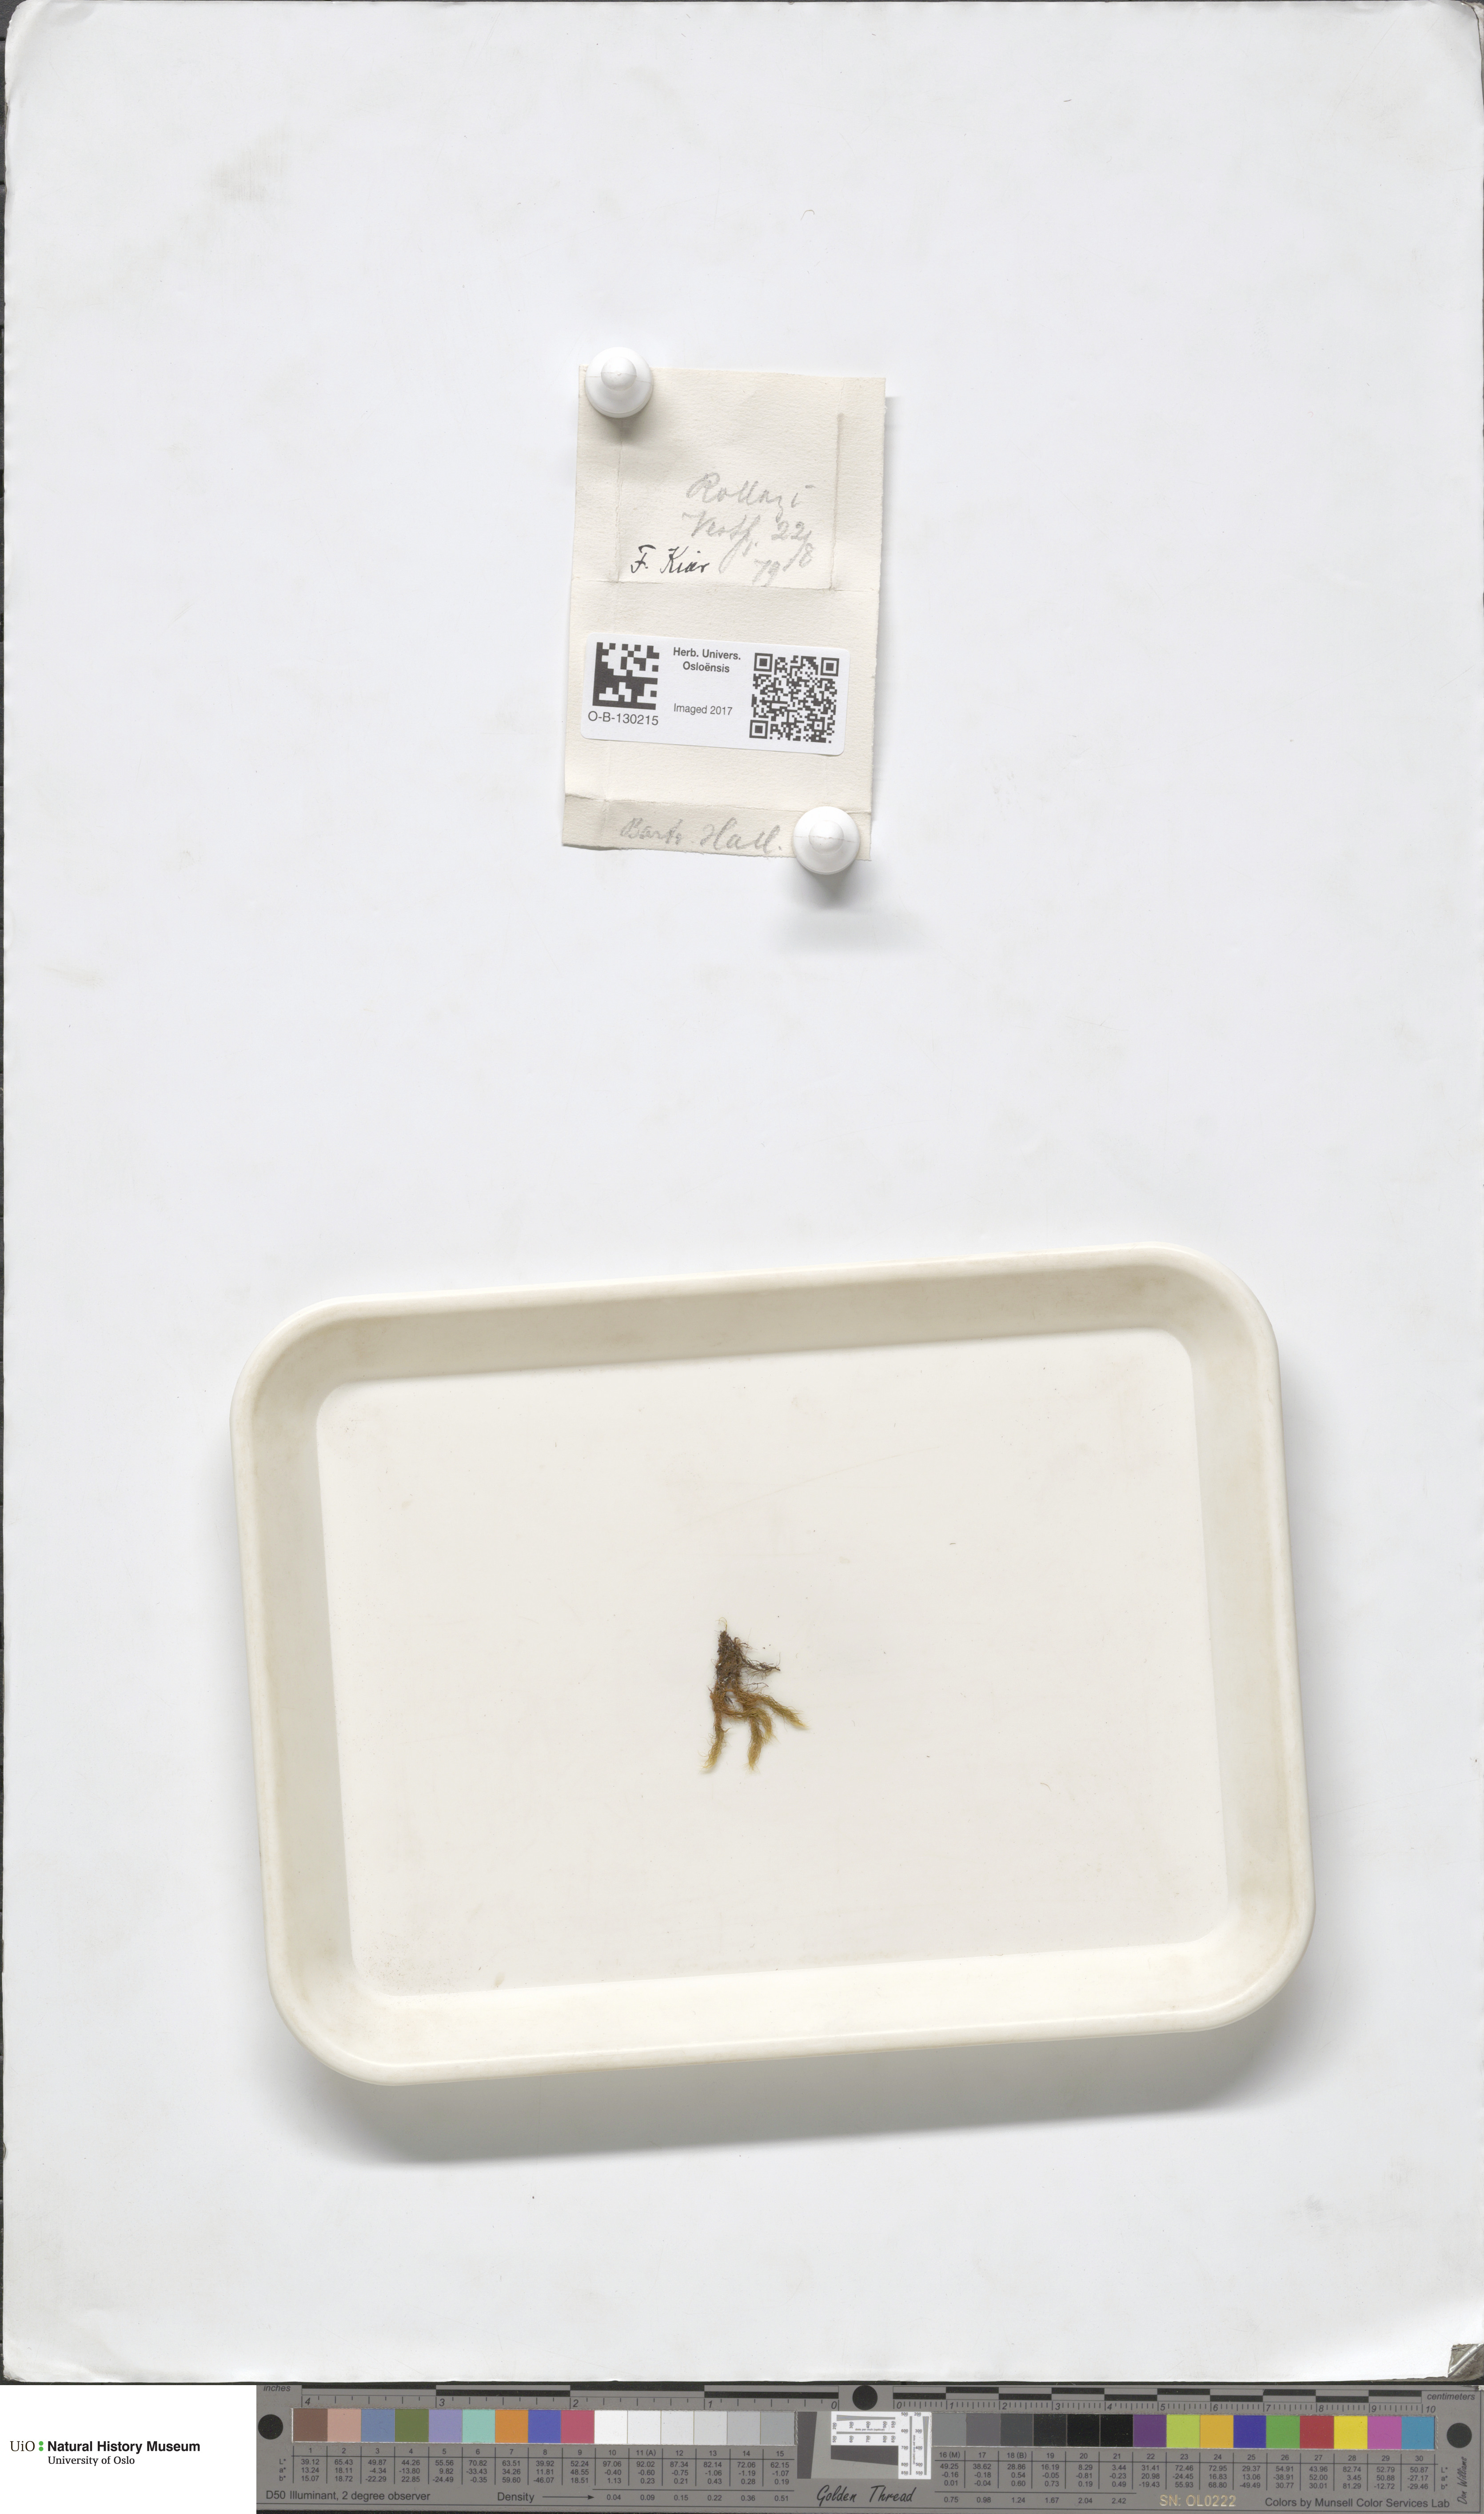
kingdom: Plantae
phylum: Bryophyta
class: Bryopsida
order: Bartramiales
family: Bartramiaceae
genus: Bartramia
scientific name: Bartramia halleriana
